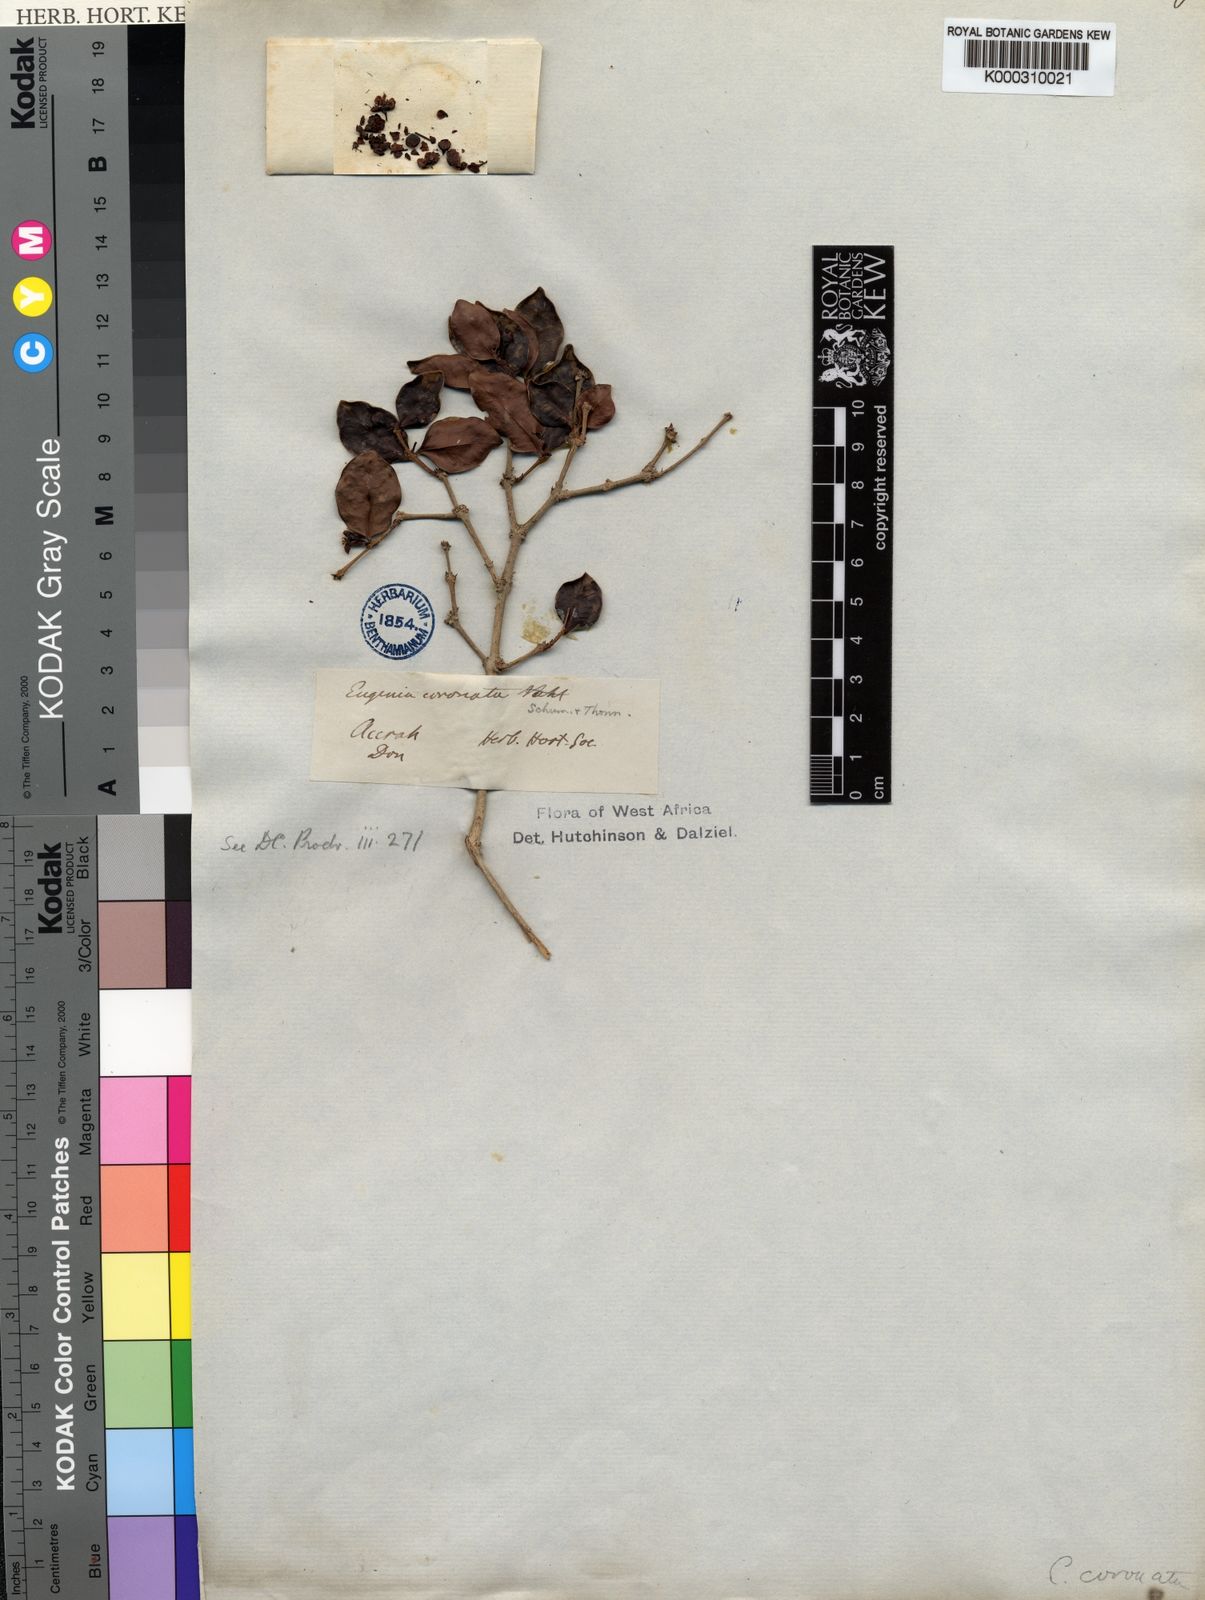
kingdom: Plantae
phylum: Tracheophyta
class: Magnoliopsida
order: Myrtales
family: Myrtaceae
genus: Eugenia
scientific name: Eugenia
